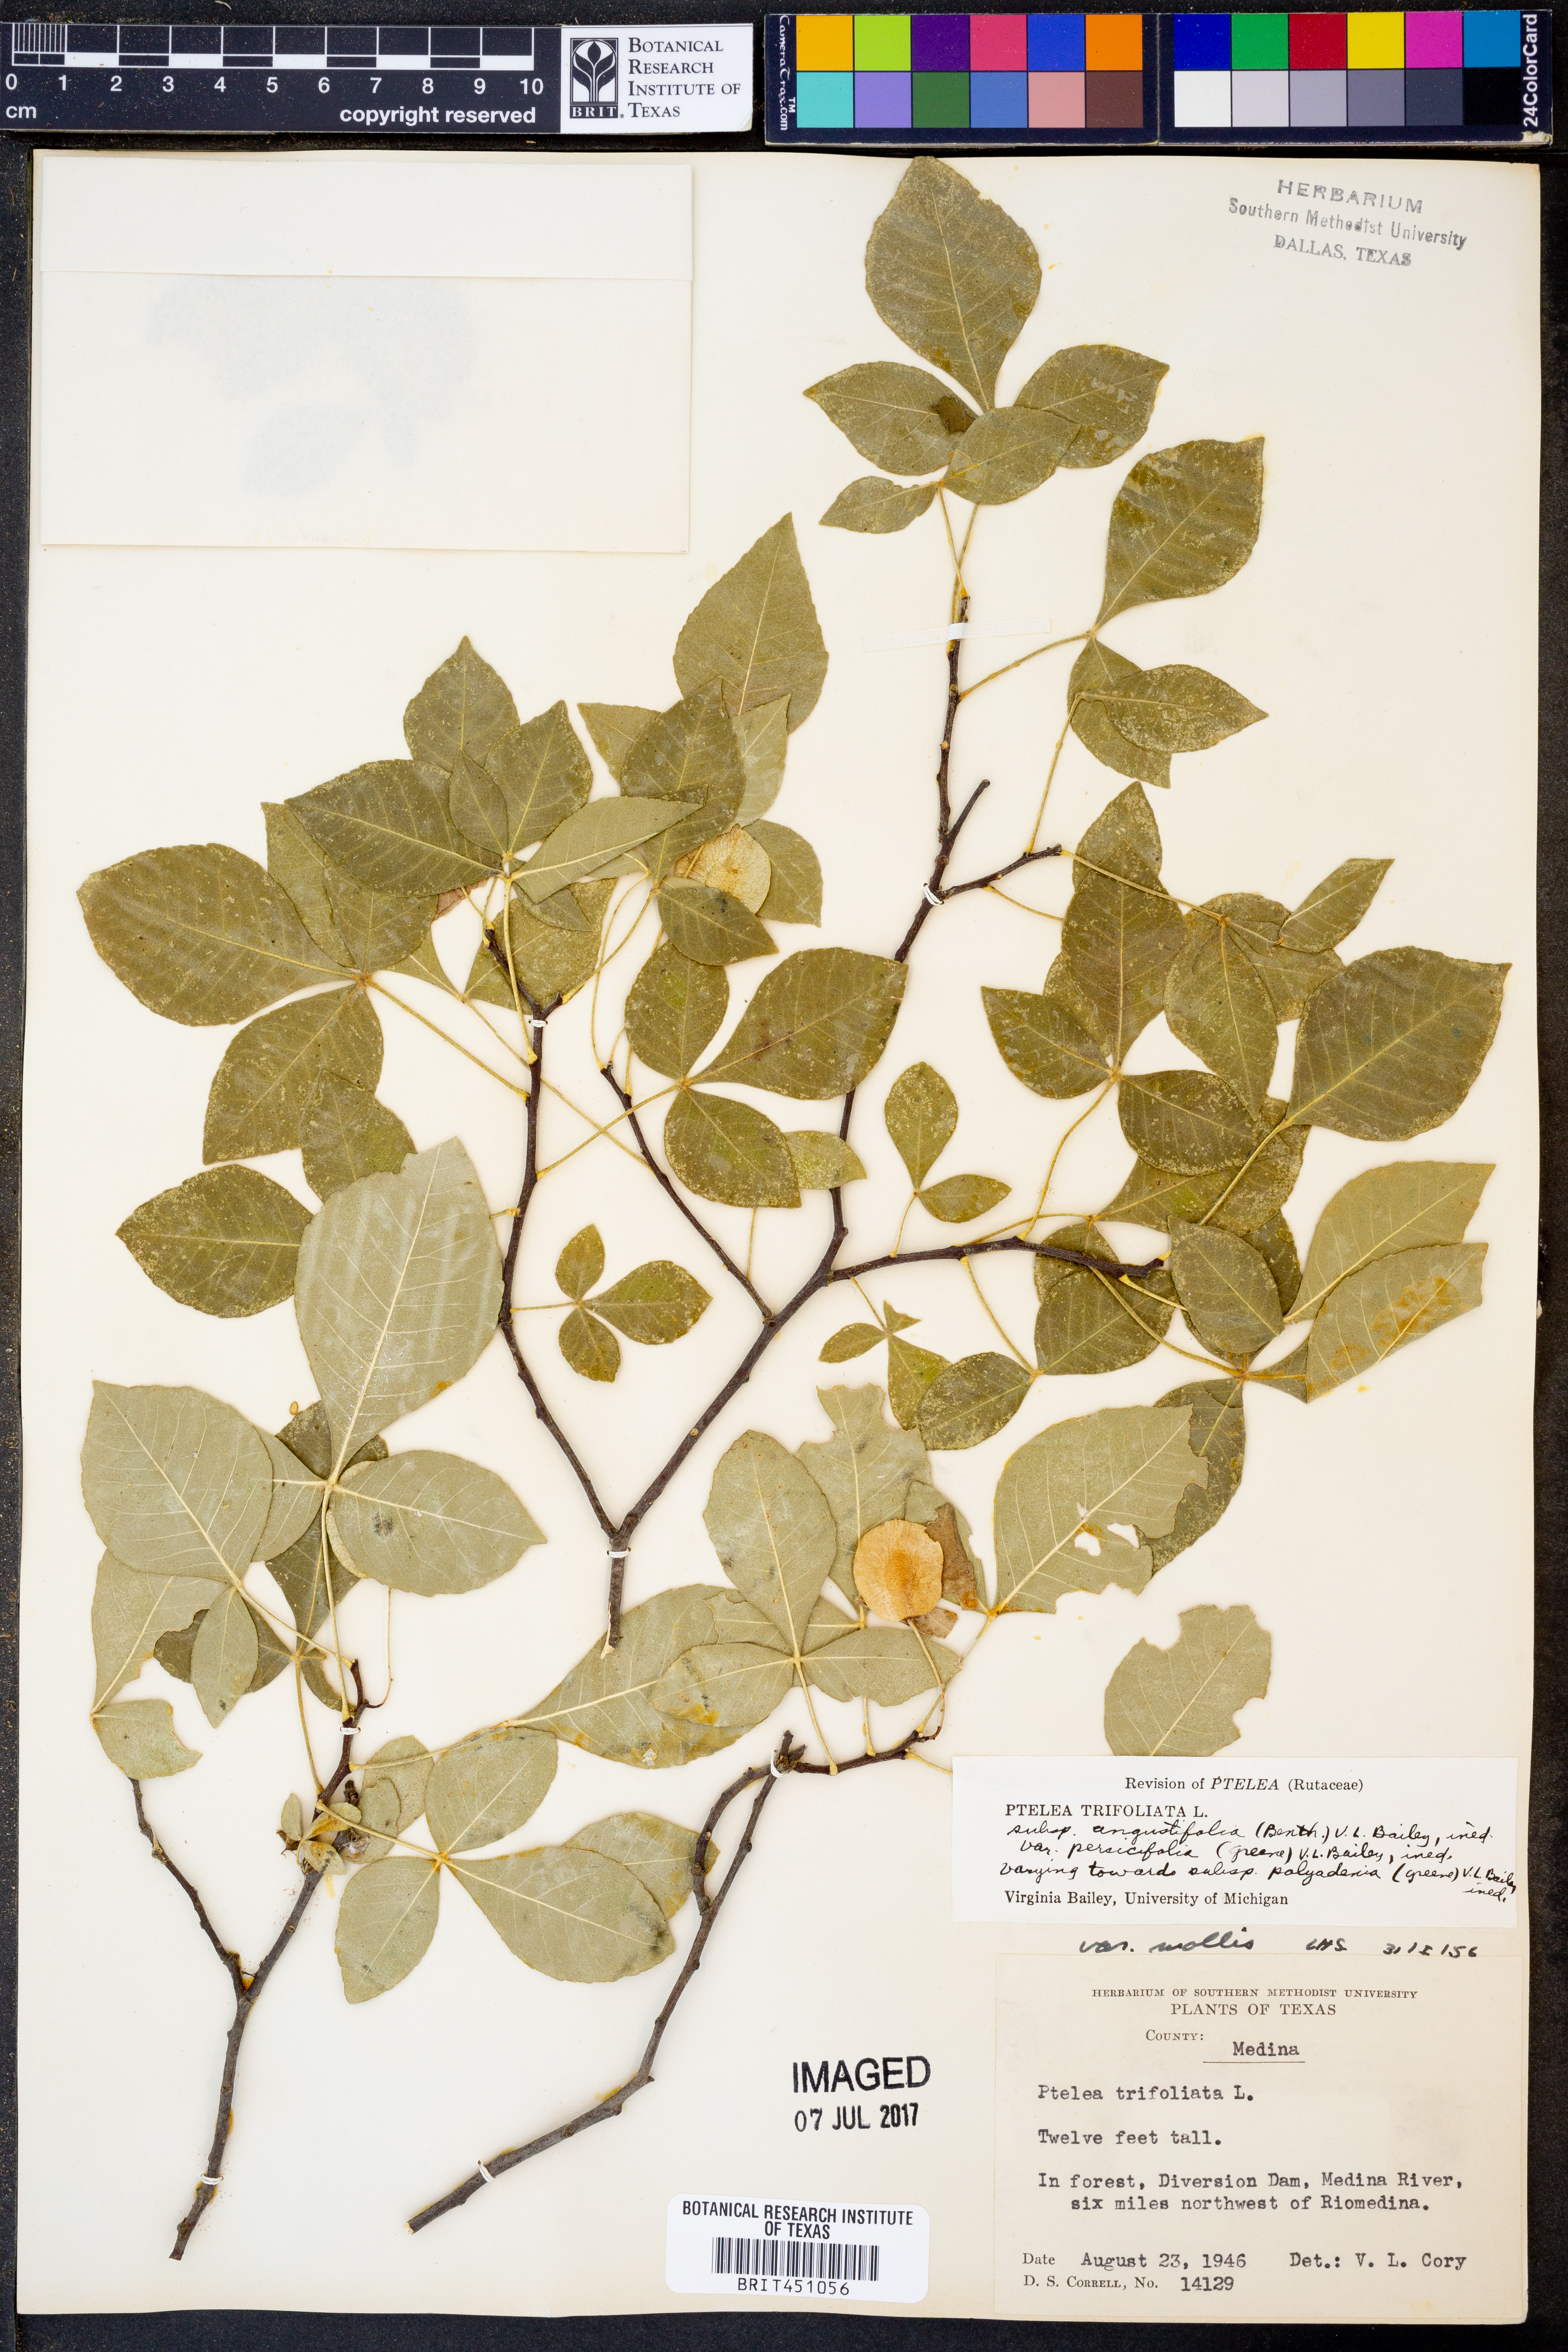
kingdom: Plantae
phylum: Tracheophyta
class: Magnoliopsida
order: Sapindales
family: Rutaceae
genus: Ptelea
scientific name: Ptelea trifoliata
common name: Common hop-tree
